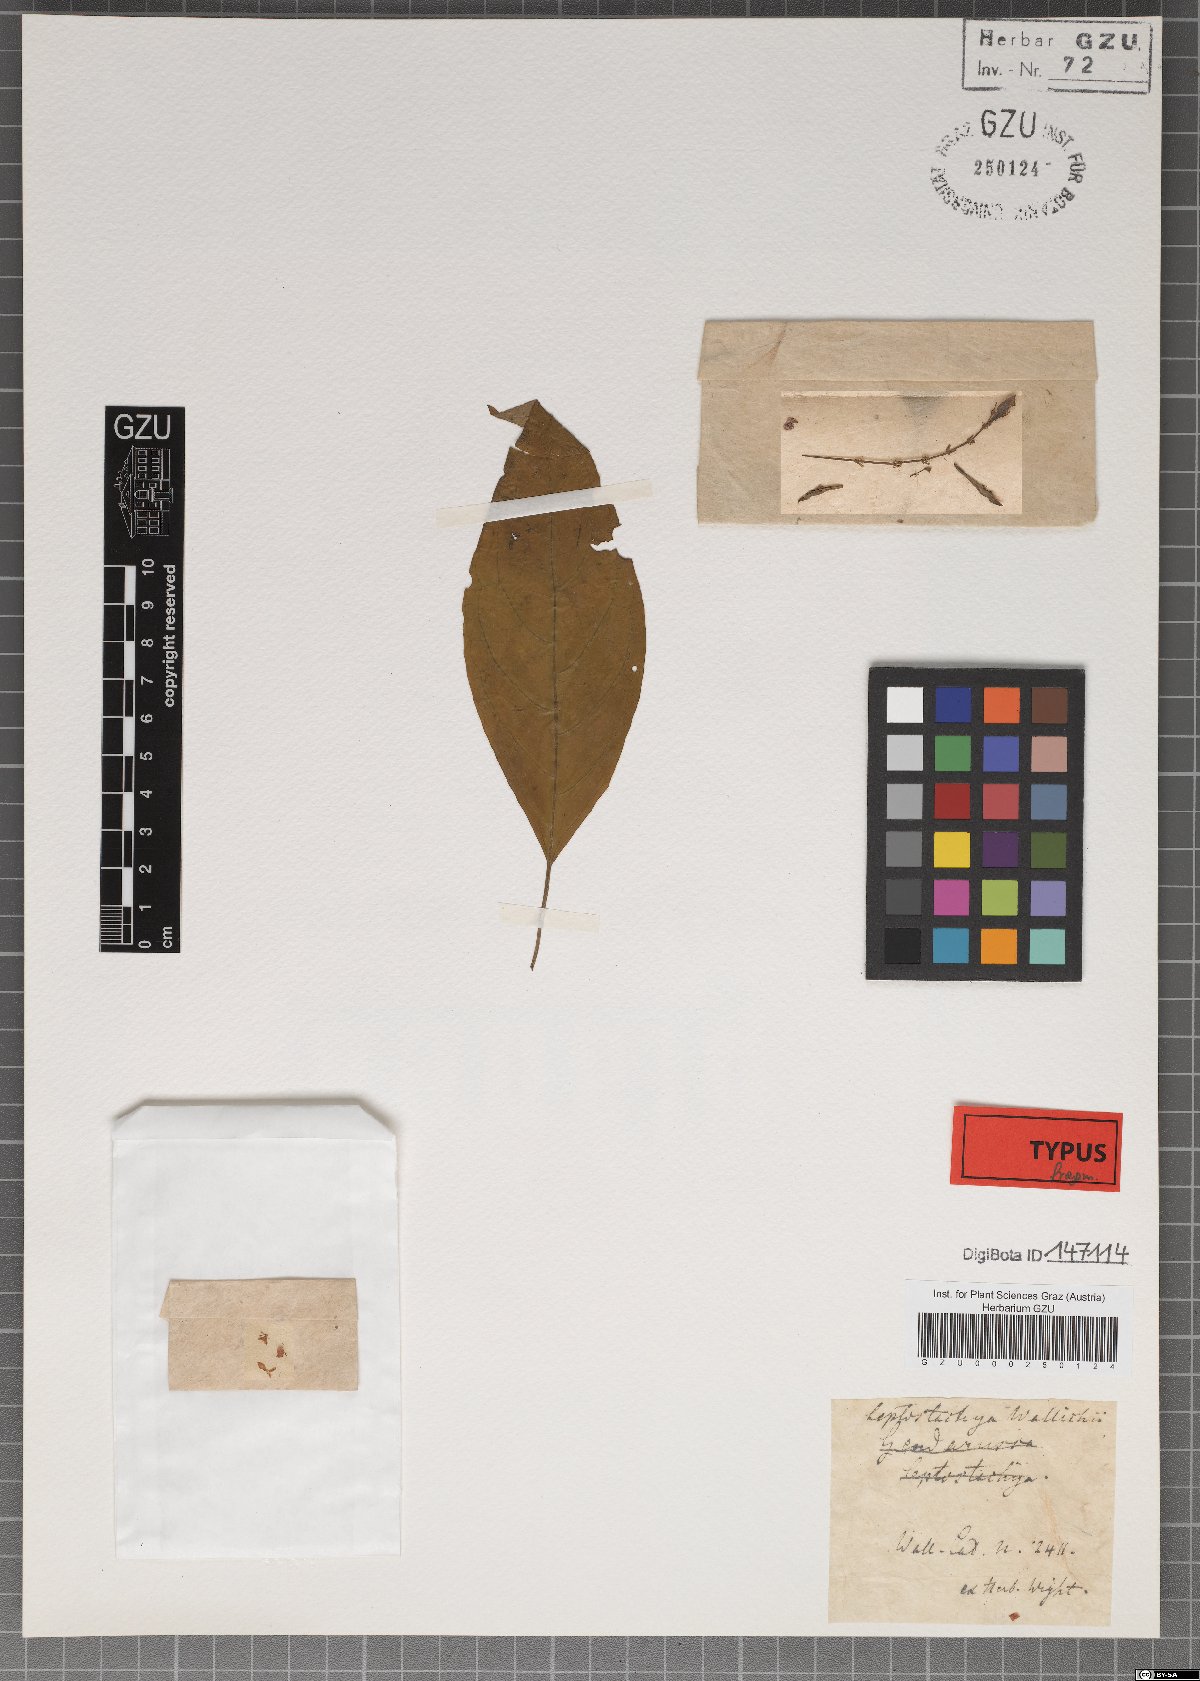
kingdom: Plantae
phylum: Tracheophyta
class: Magnoliopsida
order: Lamiales
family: Acanthaceae
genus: Leptostachya
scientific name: Leptostachya wallichii
